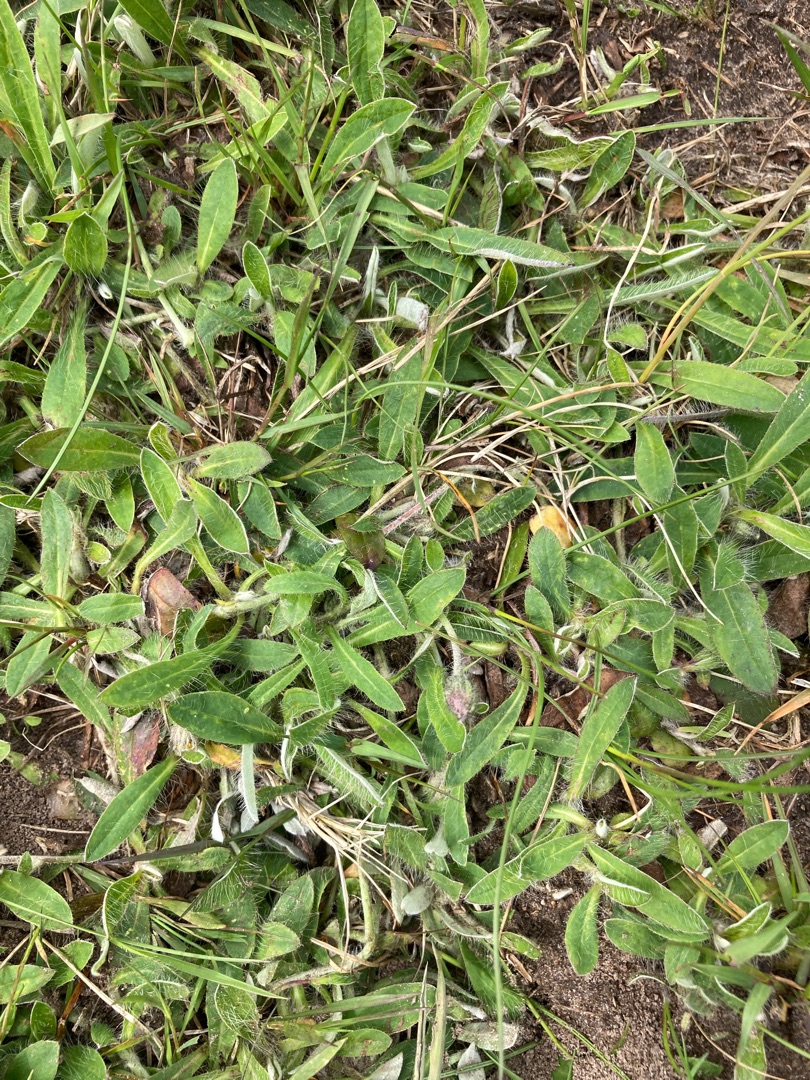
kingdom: Plantae
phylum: Tracheophyta
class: Magnoliopsida
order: Asterales
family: Asteraceae
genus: Pilosella
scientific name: Pilosella officinarum
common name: Håret høgeurt
